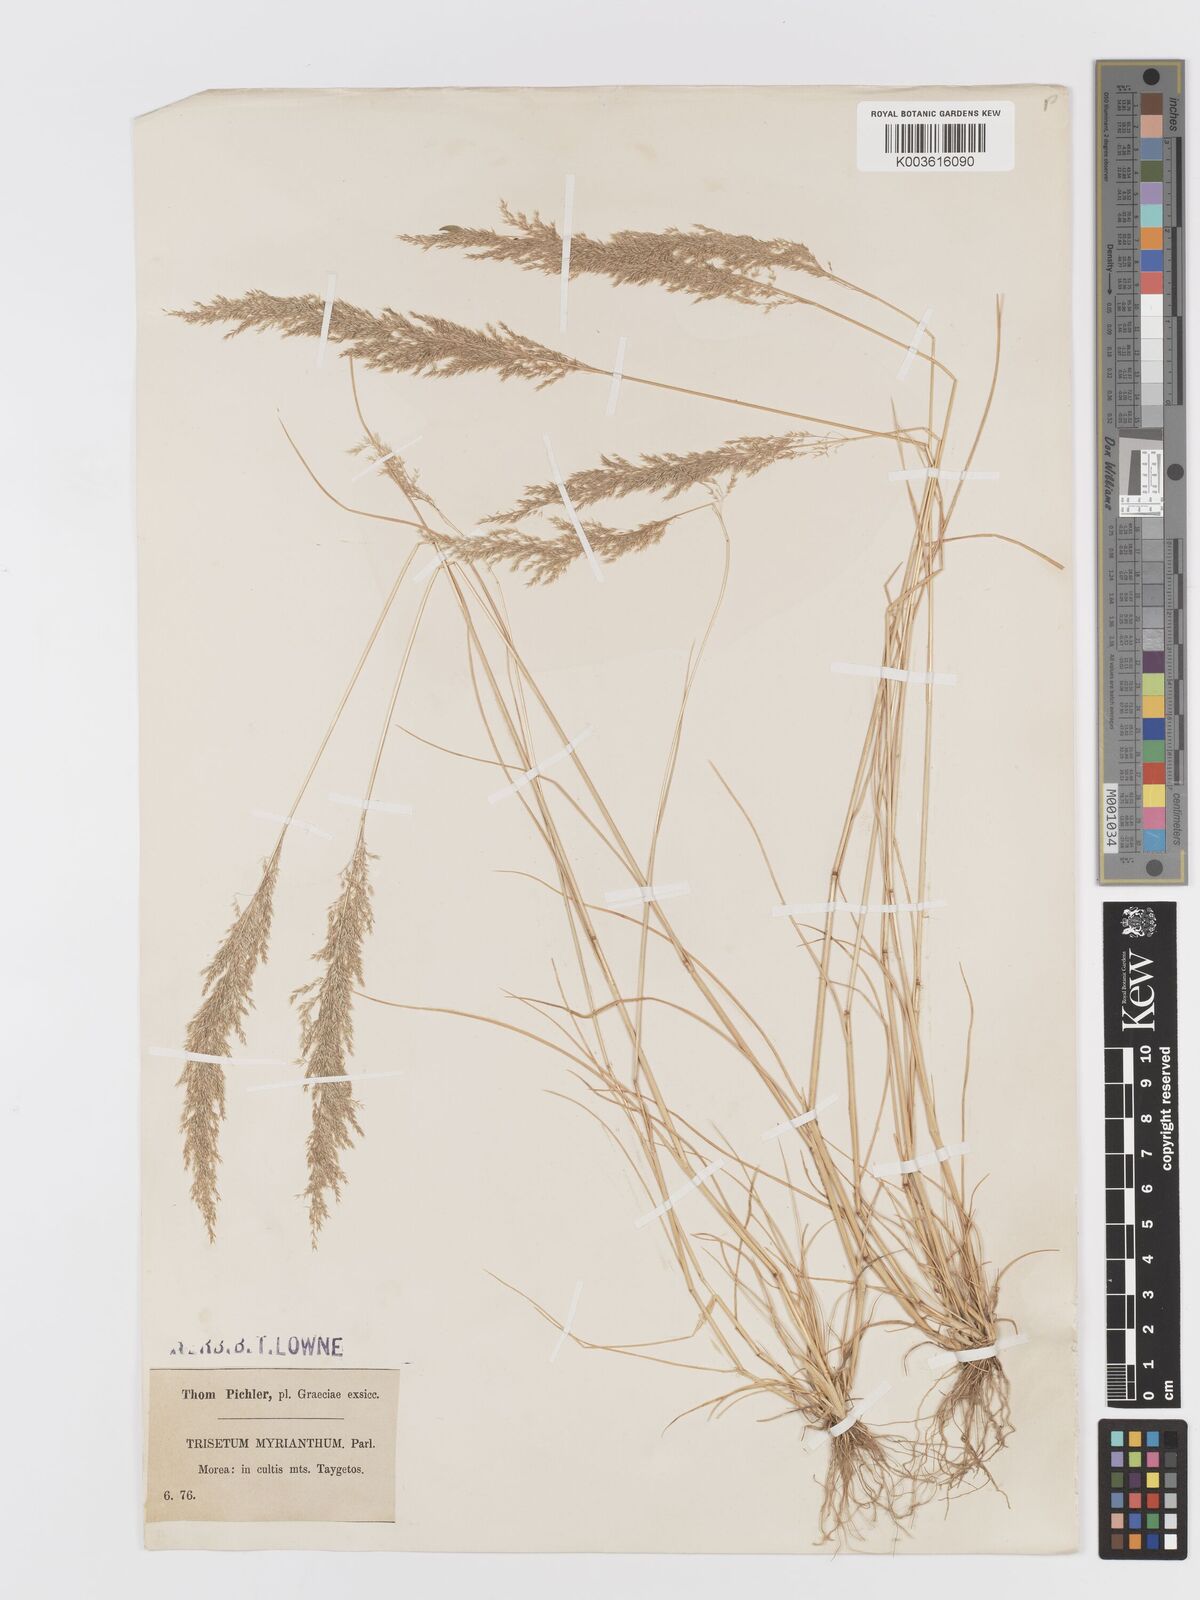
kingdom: Plantae
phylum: Tracheophyta
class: Liliopsida
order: Poales
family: Poaceae
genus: Parvotrisetum
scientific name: Parvotrisetum myrianthum
